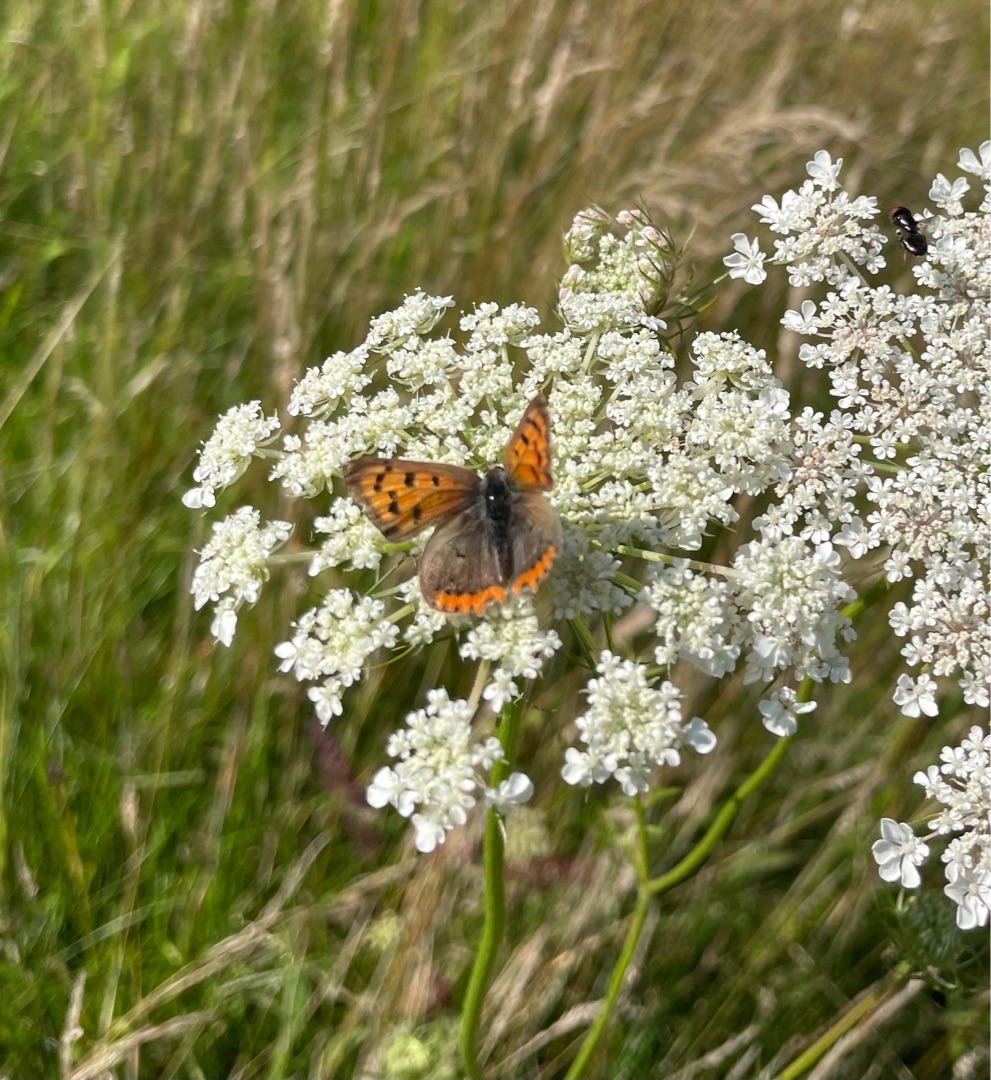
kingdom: Animalia
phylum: Arthropoda
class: Insecta
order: Lepidoptera
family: Lycaenidae
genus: Lycaena
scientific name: Lycaena phlaeas
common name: Lille ildfugl
